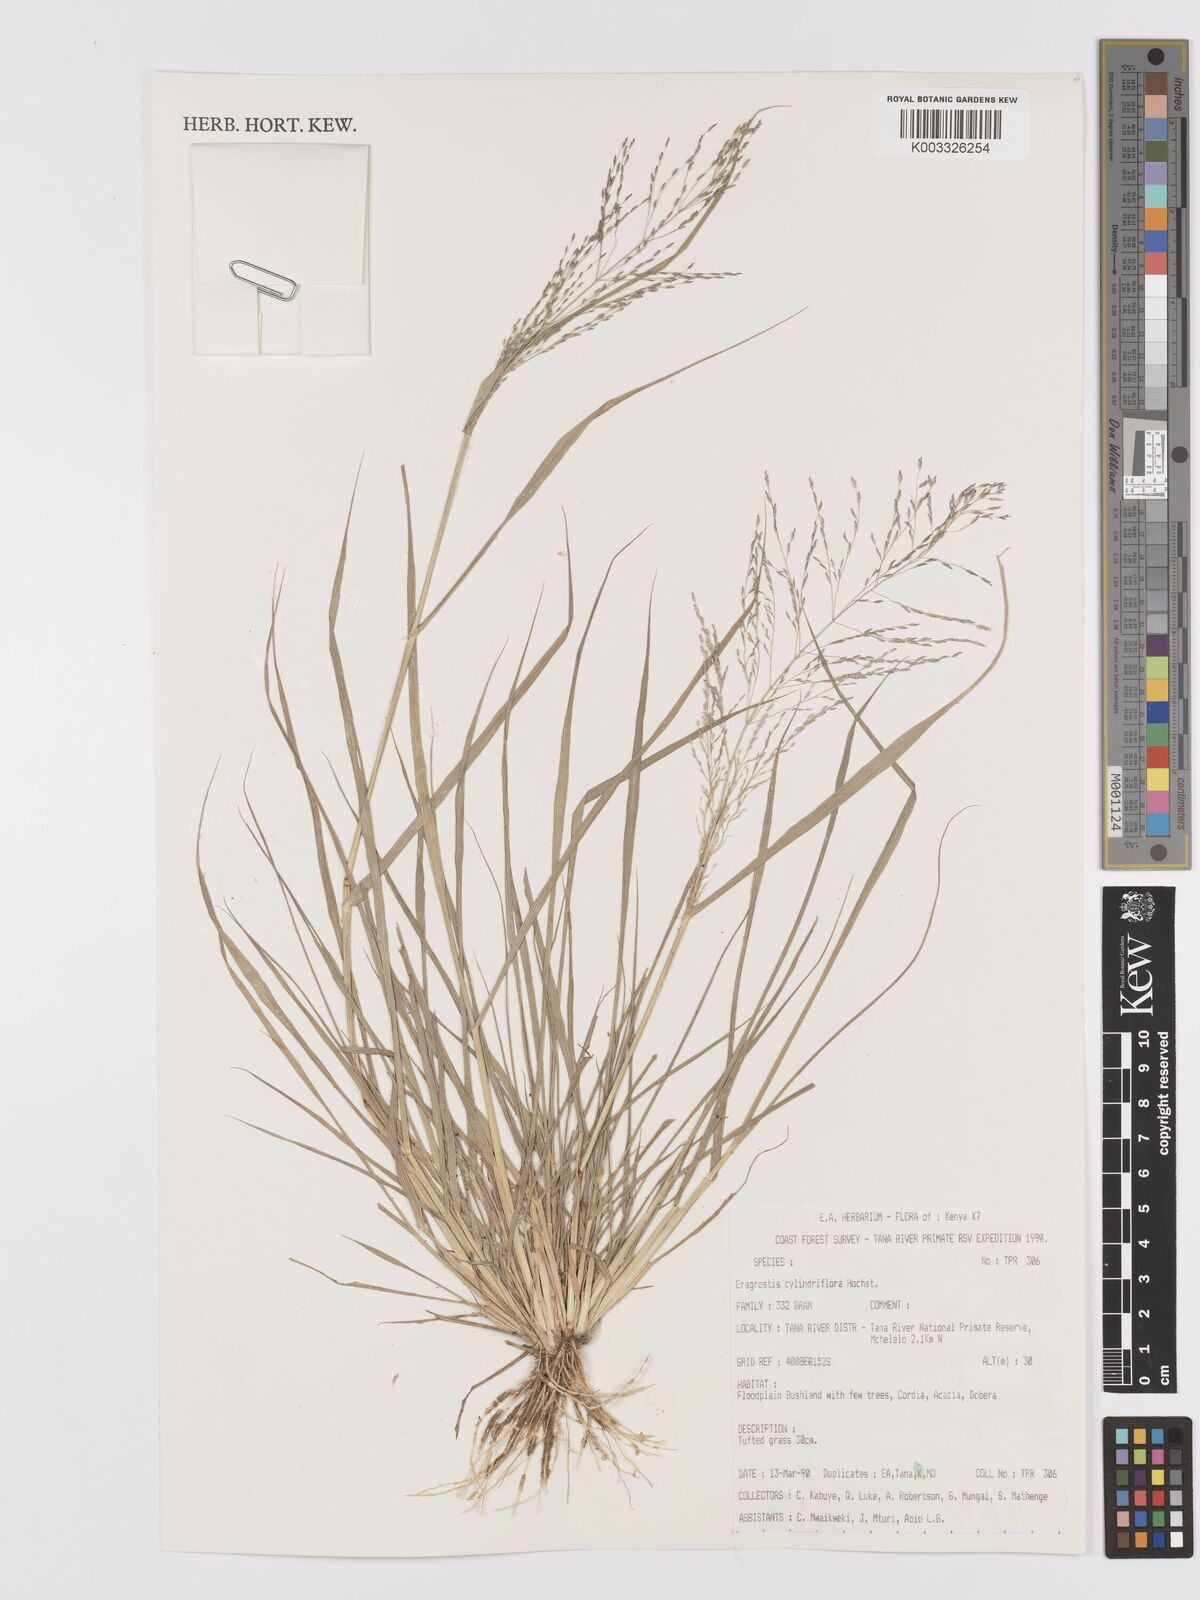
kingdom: Plantae
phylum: Tracheophyta
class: Liliopsida
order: Poales
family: Poaceae
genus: Eragrostis
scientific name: Eragrostis cylindriflora
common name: Cylinderflower lovegrass
